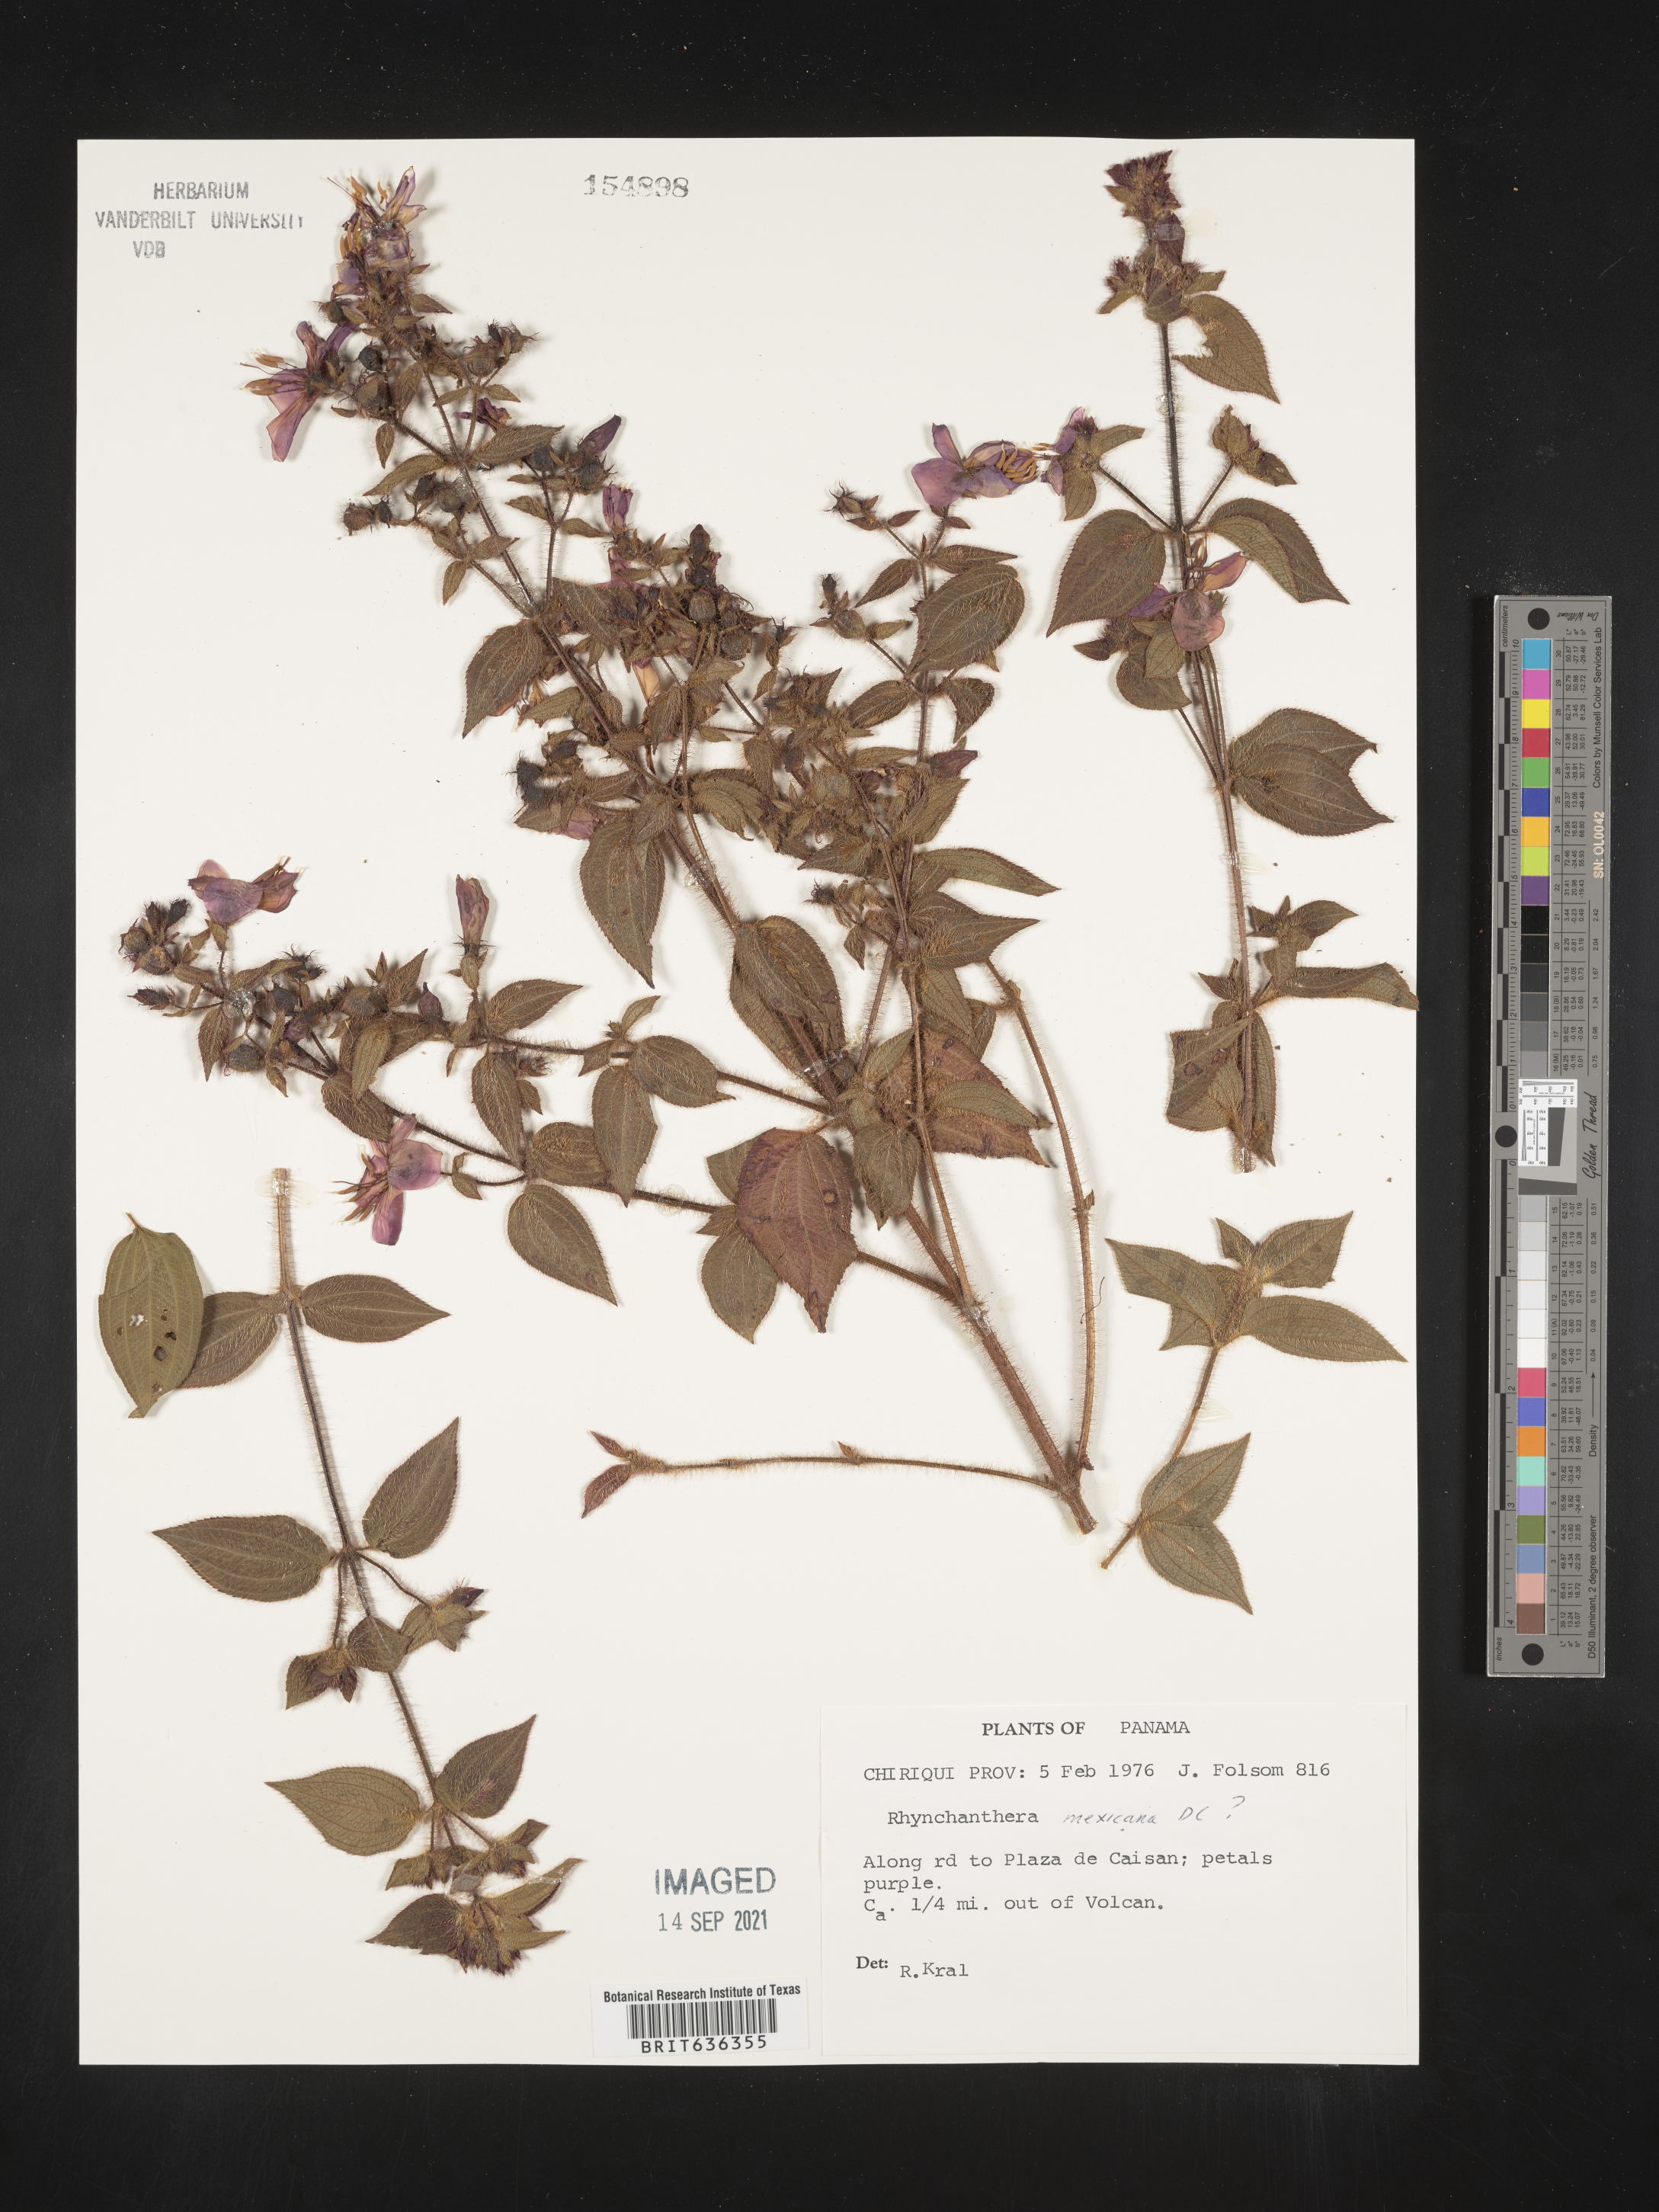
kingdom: Plantae
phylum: Tracheophyta
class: Magnoliopsida
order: Myrtales
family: Melastomataceae
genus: Rhynchanthera
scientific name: Rhynchanthera
